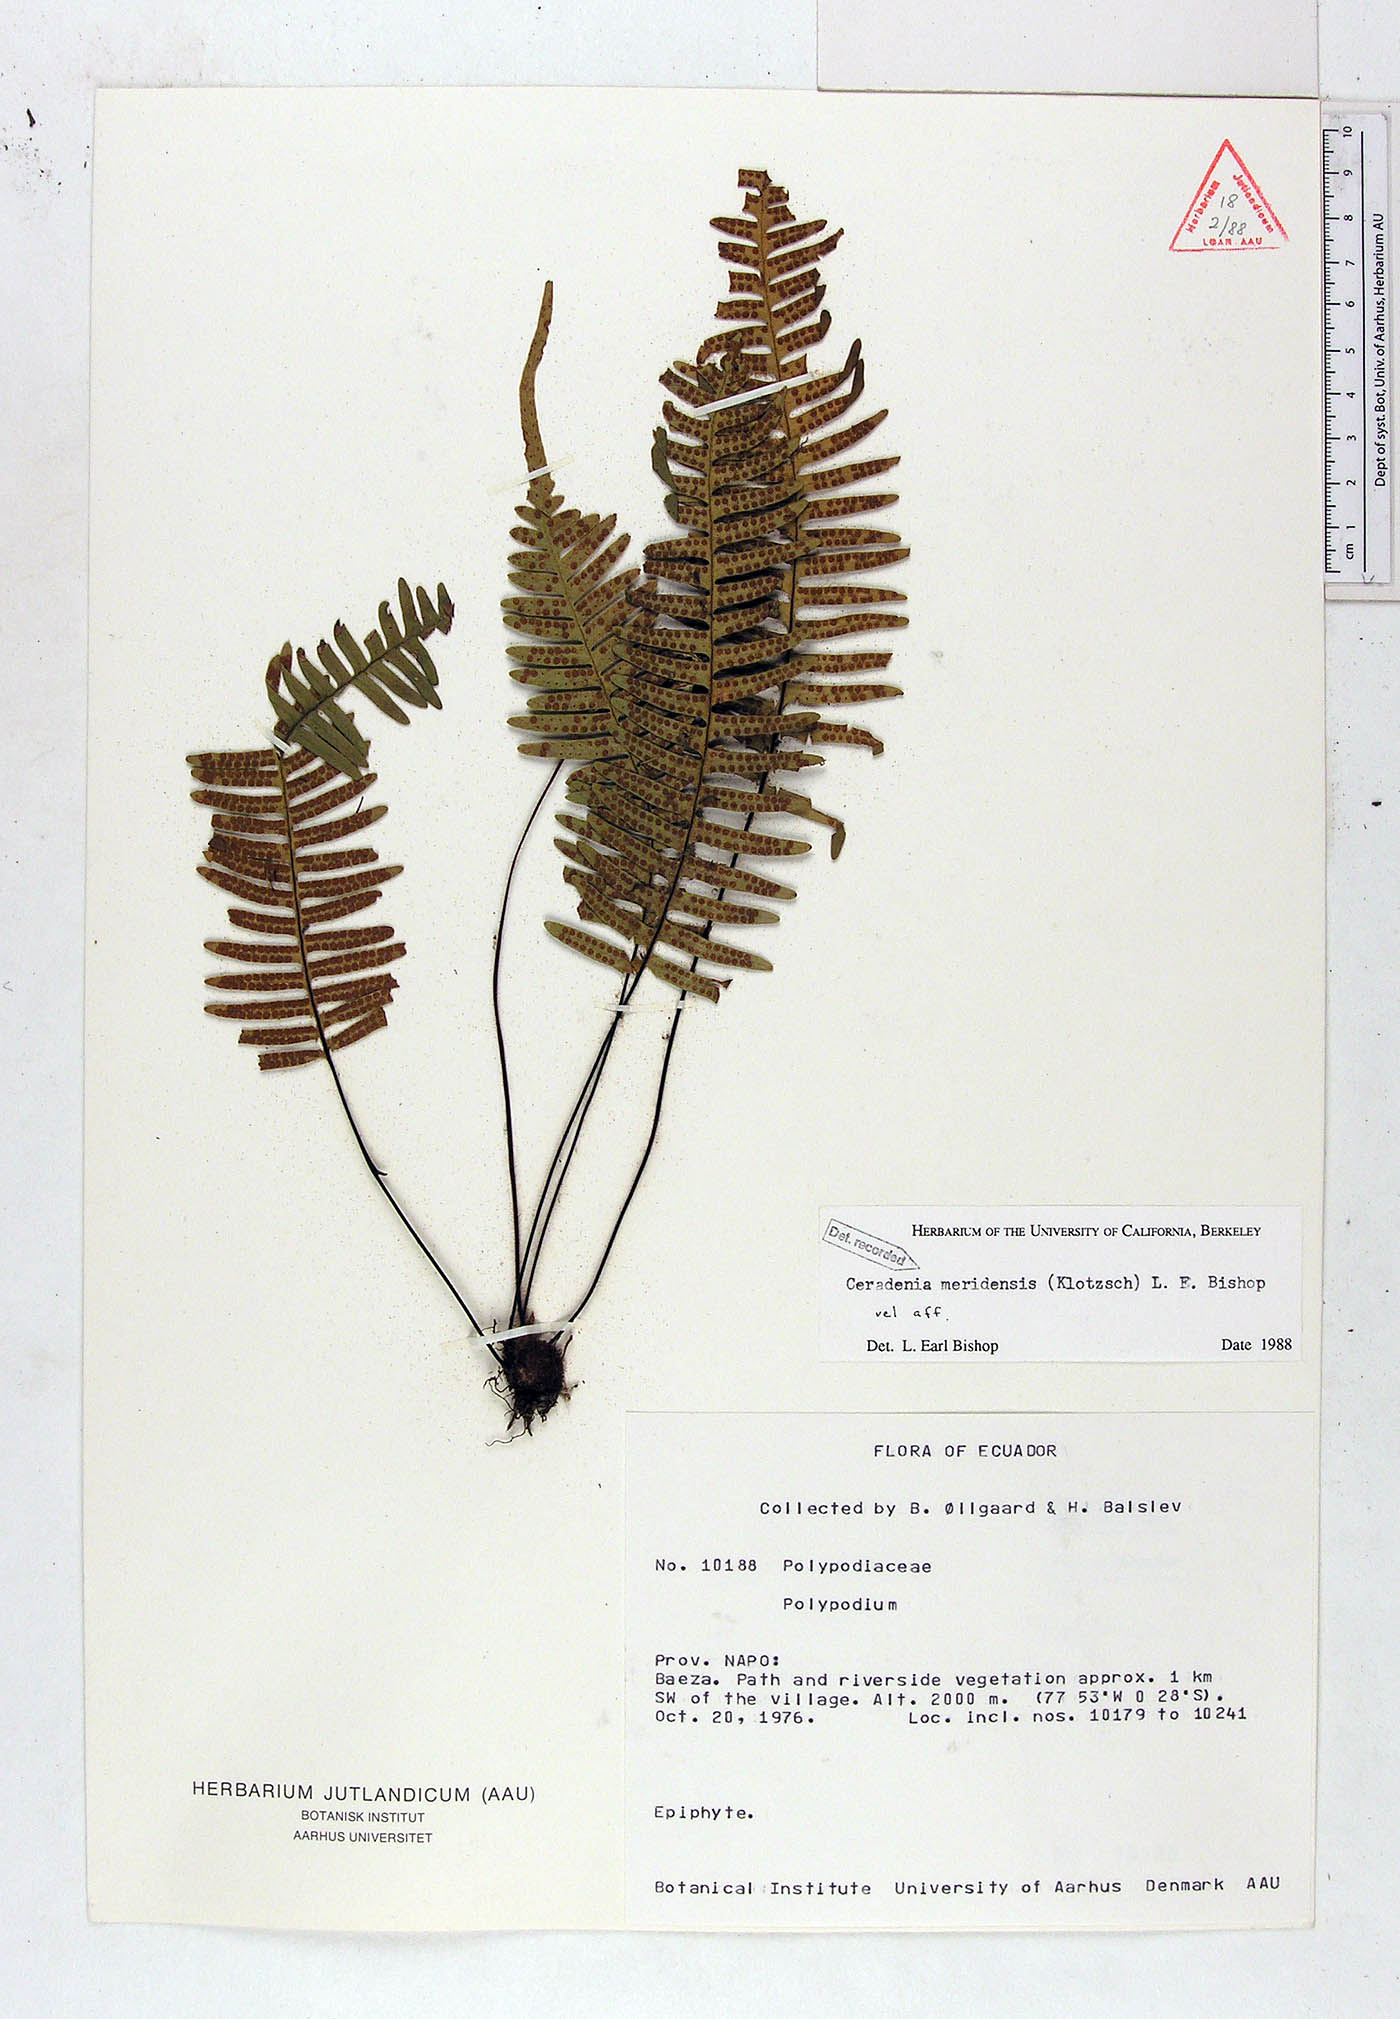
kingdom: Plantae
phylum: Tracheophyta
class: Polypodiopsida
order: Polypodiales
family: Polypodiaceae
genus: Ceradenia
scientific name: Ceradenia meridensis
